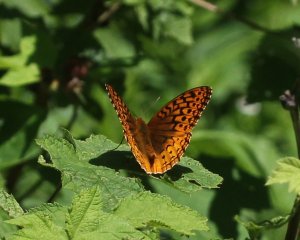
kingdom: Animalia
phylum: Arthropoda
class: Insecta
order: Lepidoptera
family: Nymphalidae
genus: Speyeria
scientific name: Speyeria atlantis
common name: Atlantis Fritillary
